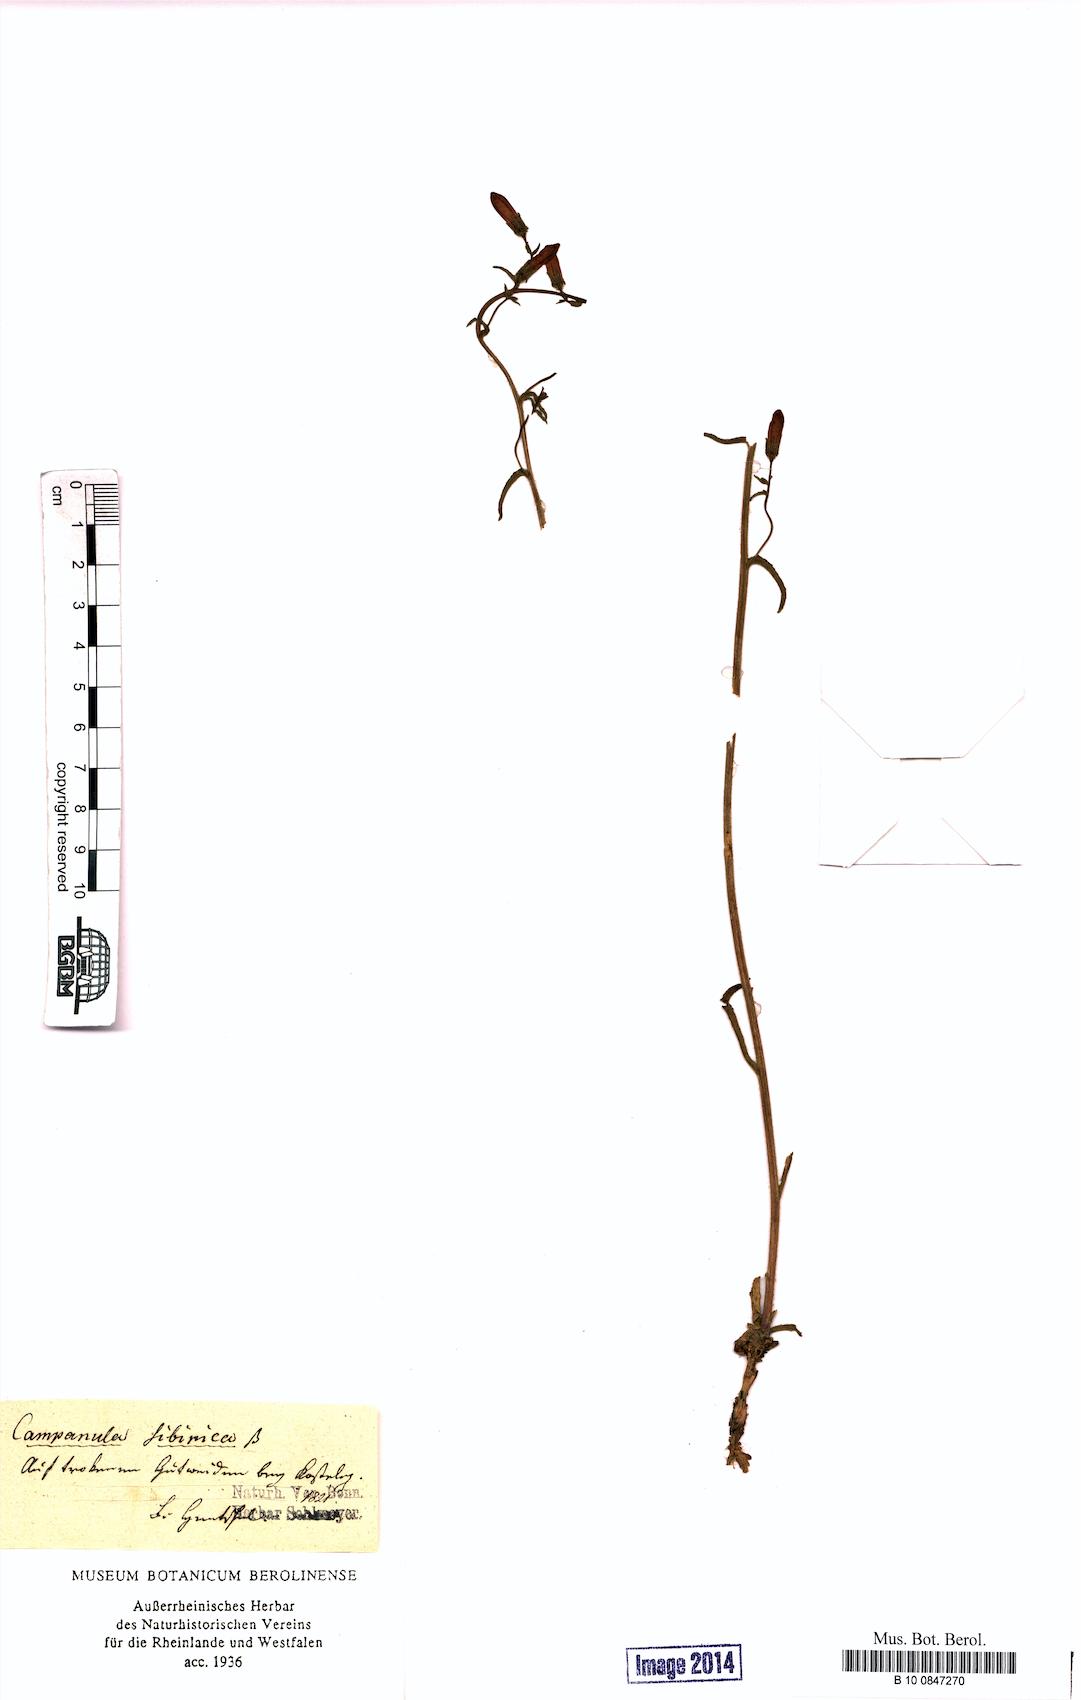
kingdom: Plantae
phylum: Tracheophyta
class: Magnoliopsida
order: Asterales
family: Campanulaceae
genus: Campanula
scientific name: Campanula sibirica
